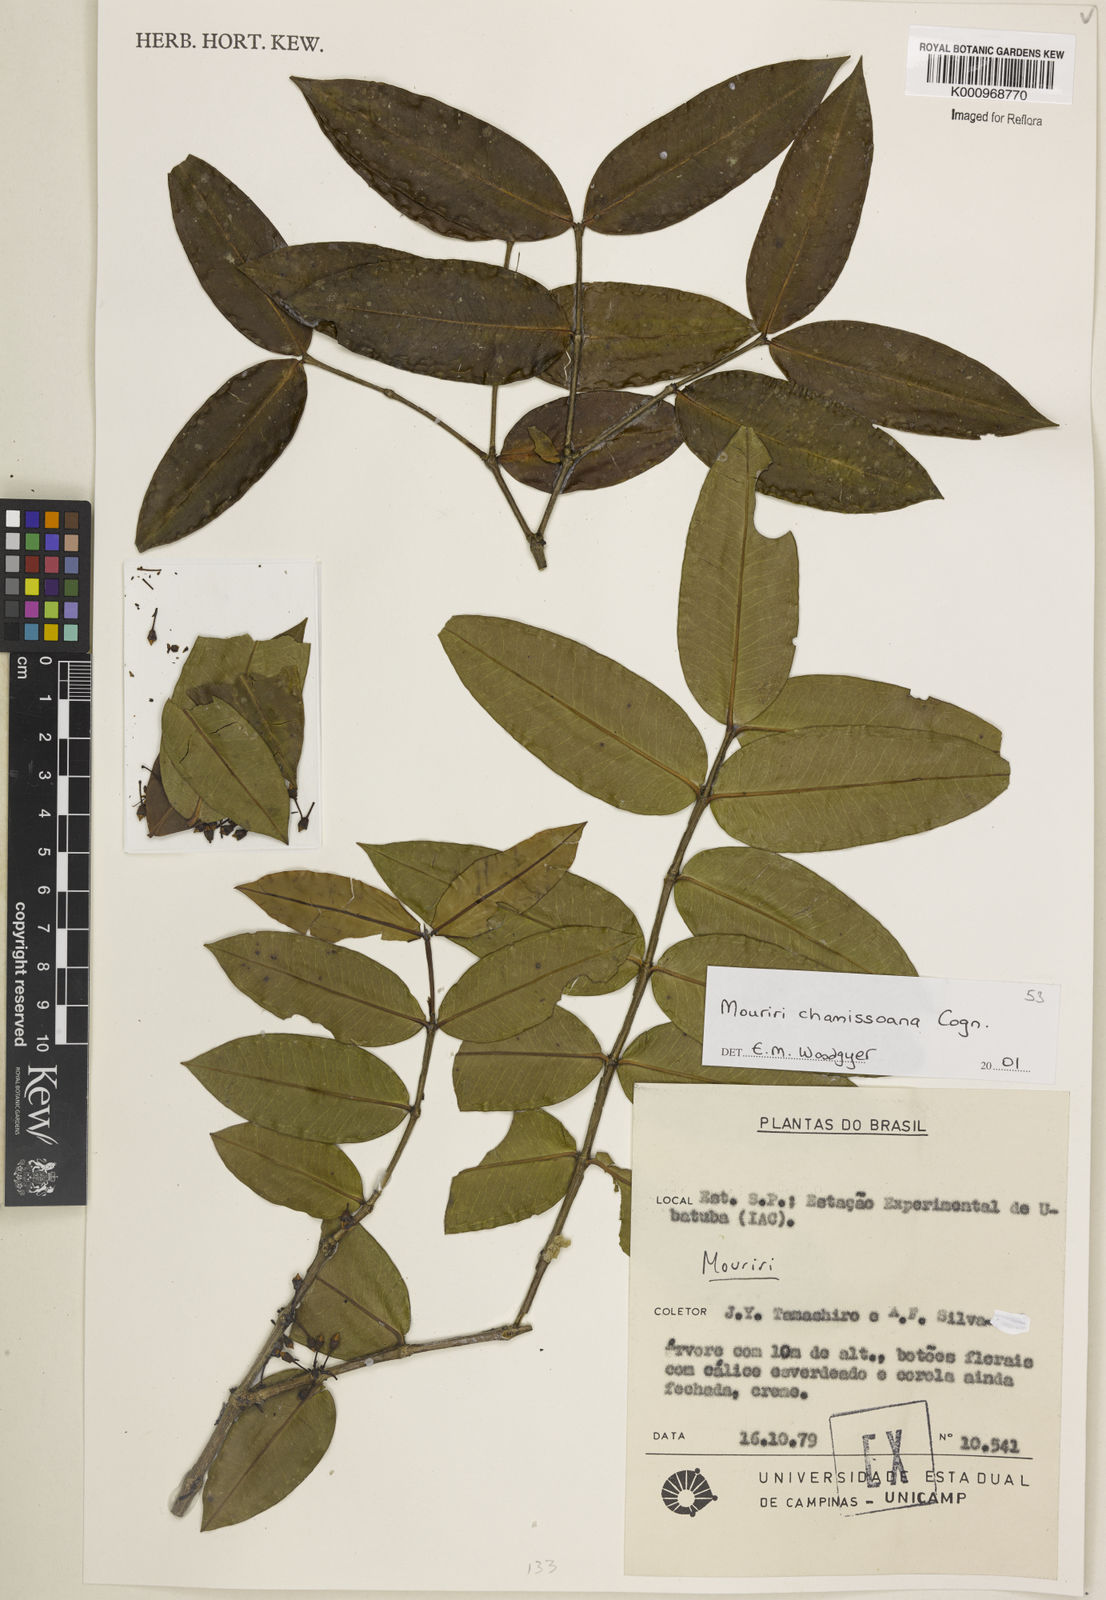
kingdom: Plantae
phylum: Tracheophyta
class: Magnoliopsida
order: Myrtales
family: Melastomataceae
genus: Mouriri
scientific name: Mouriri chamissoana
